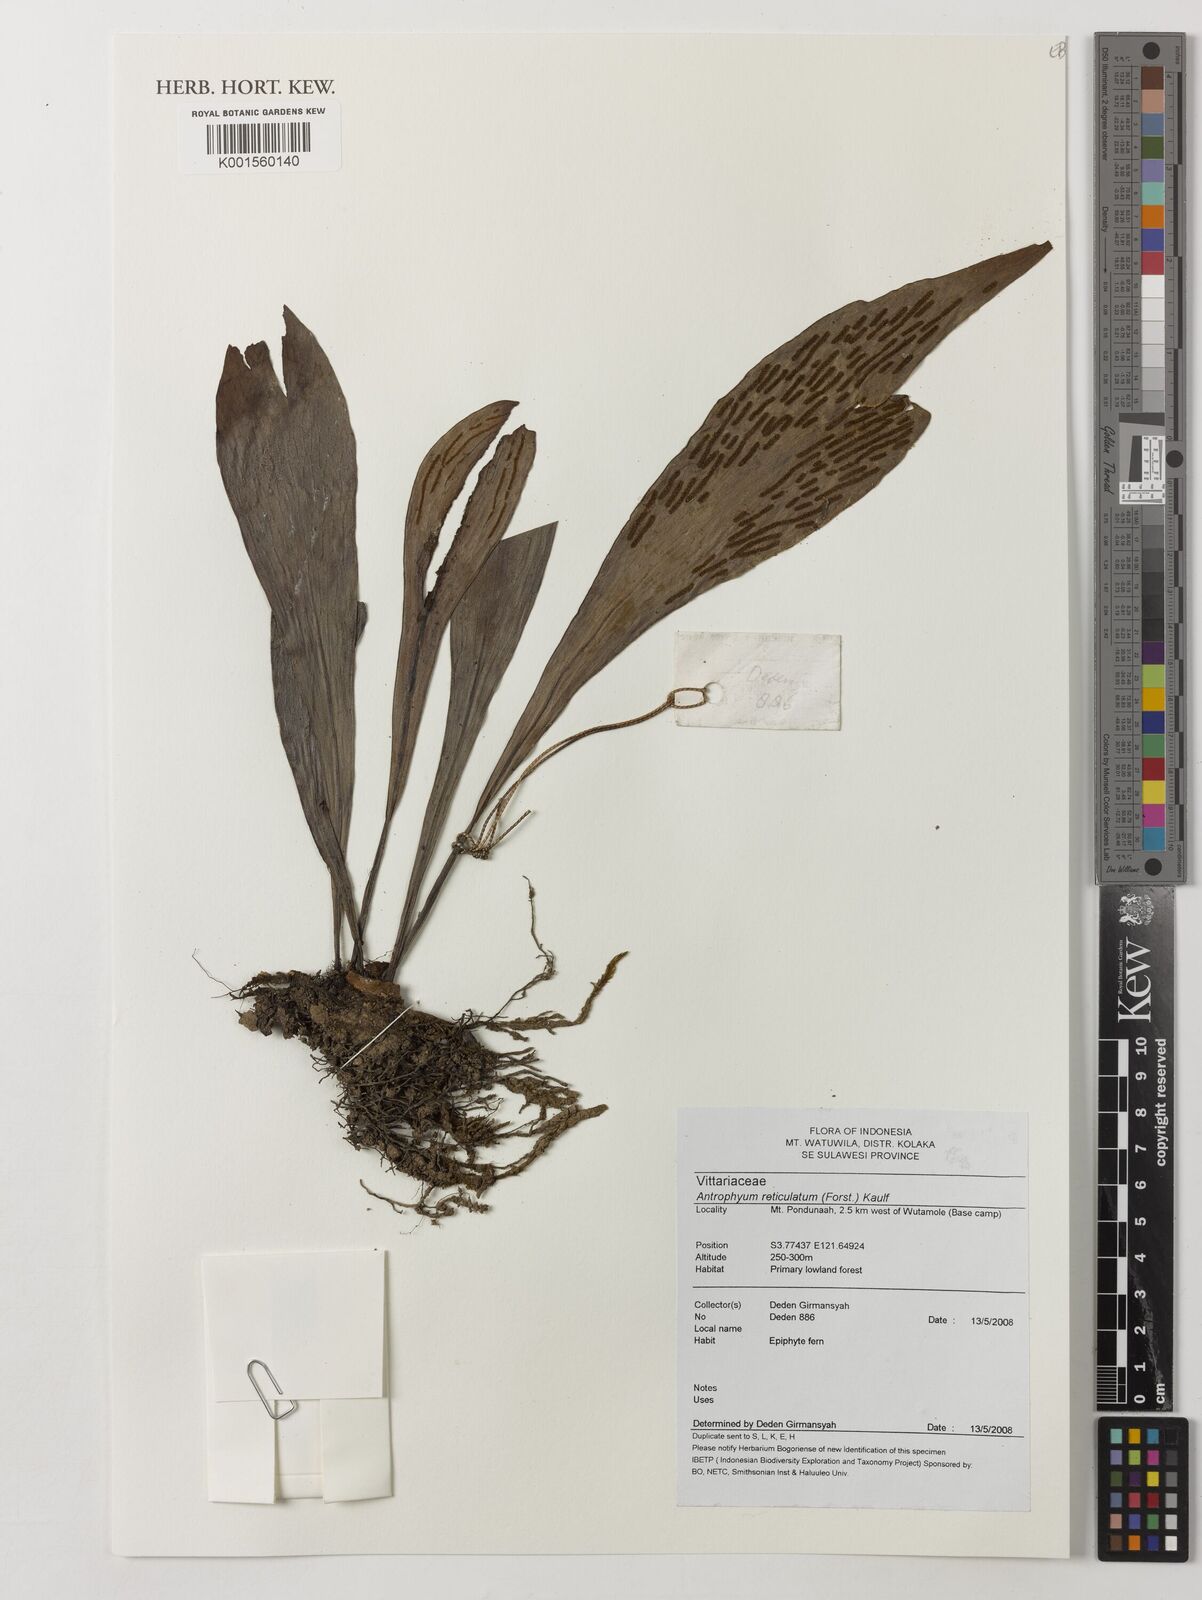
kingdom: Plantae
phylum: Tracheophyta
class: Polypodiopsida
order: Polypodiales
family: Pteridaceae
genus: Antrophyum
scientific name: Antrophyum reticulatum
